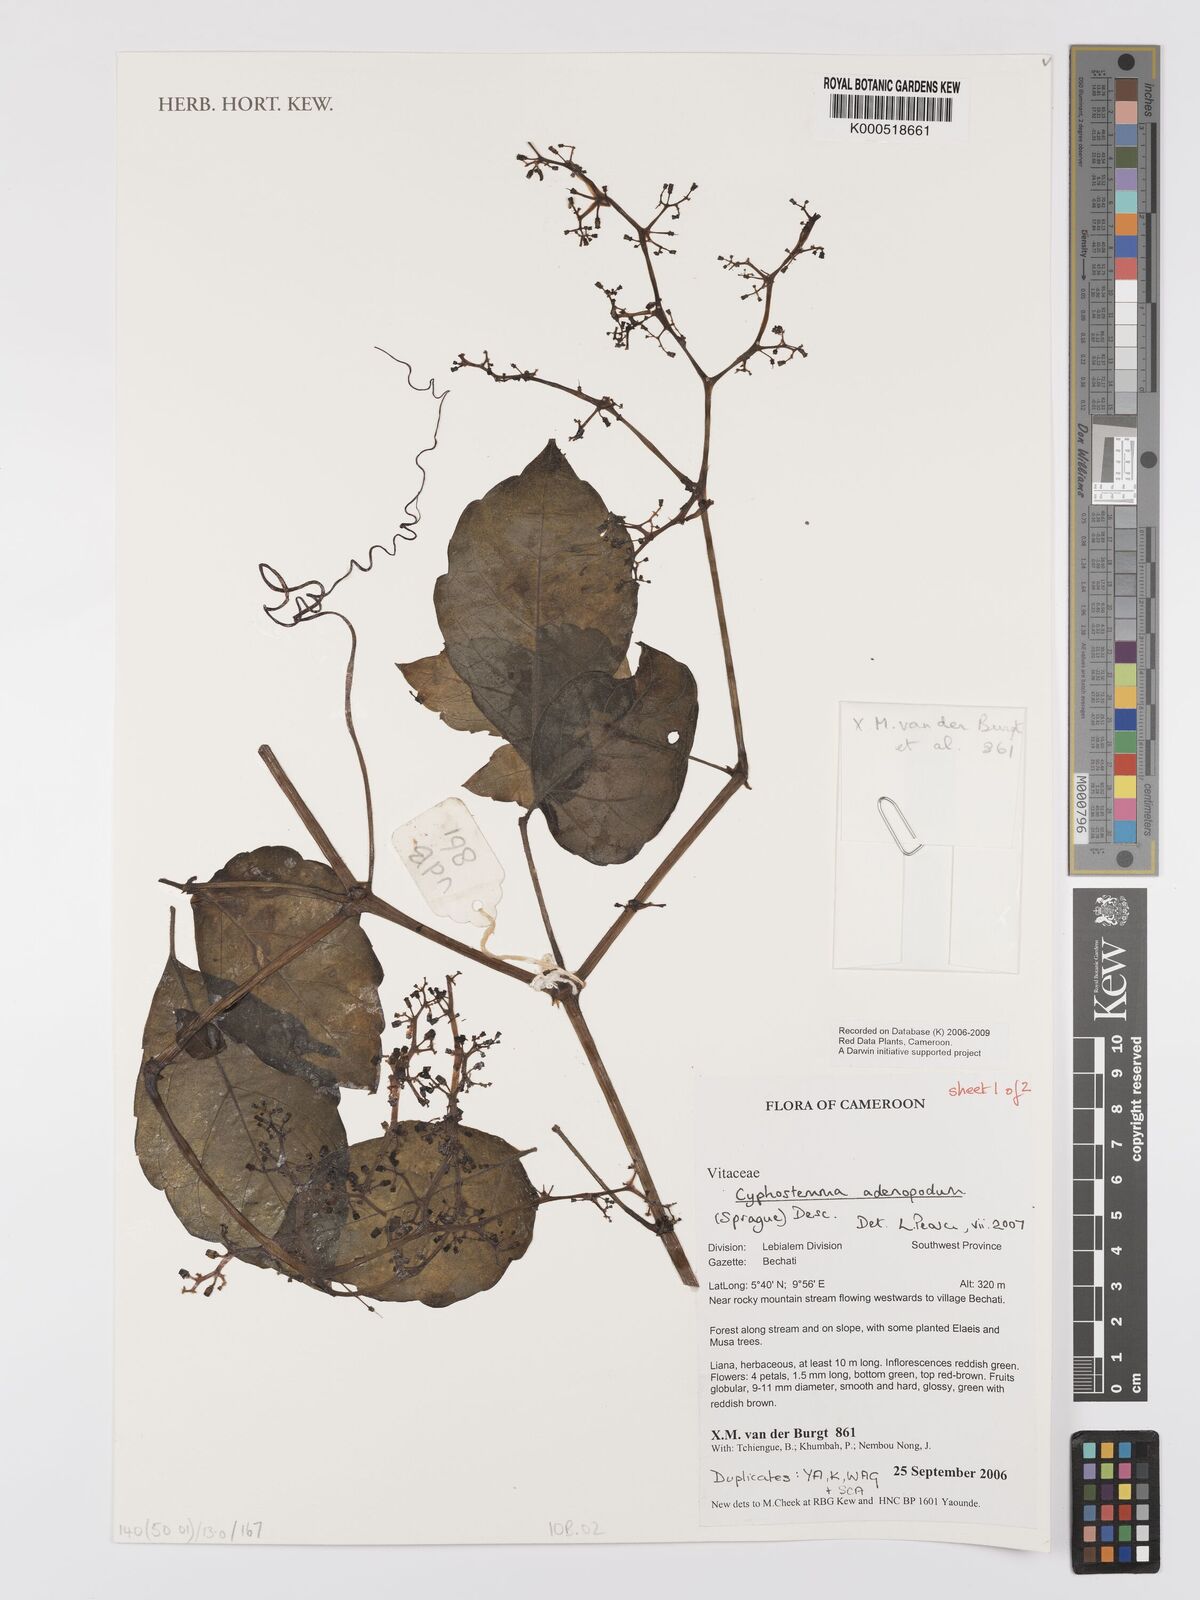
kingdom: Plantae
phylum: Tracheophyta
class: Magnoliopsida
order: Vitales
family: Vitaceae
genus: Cyphostemma
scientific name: Cyphostemma adenopodum
